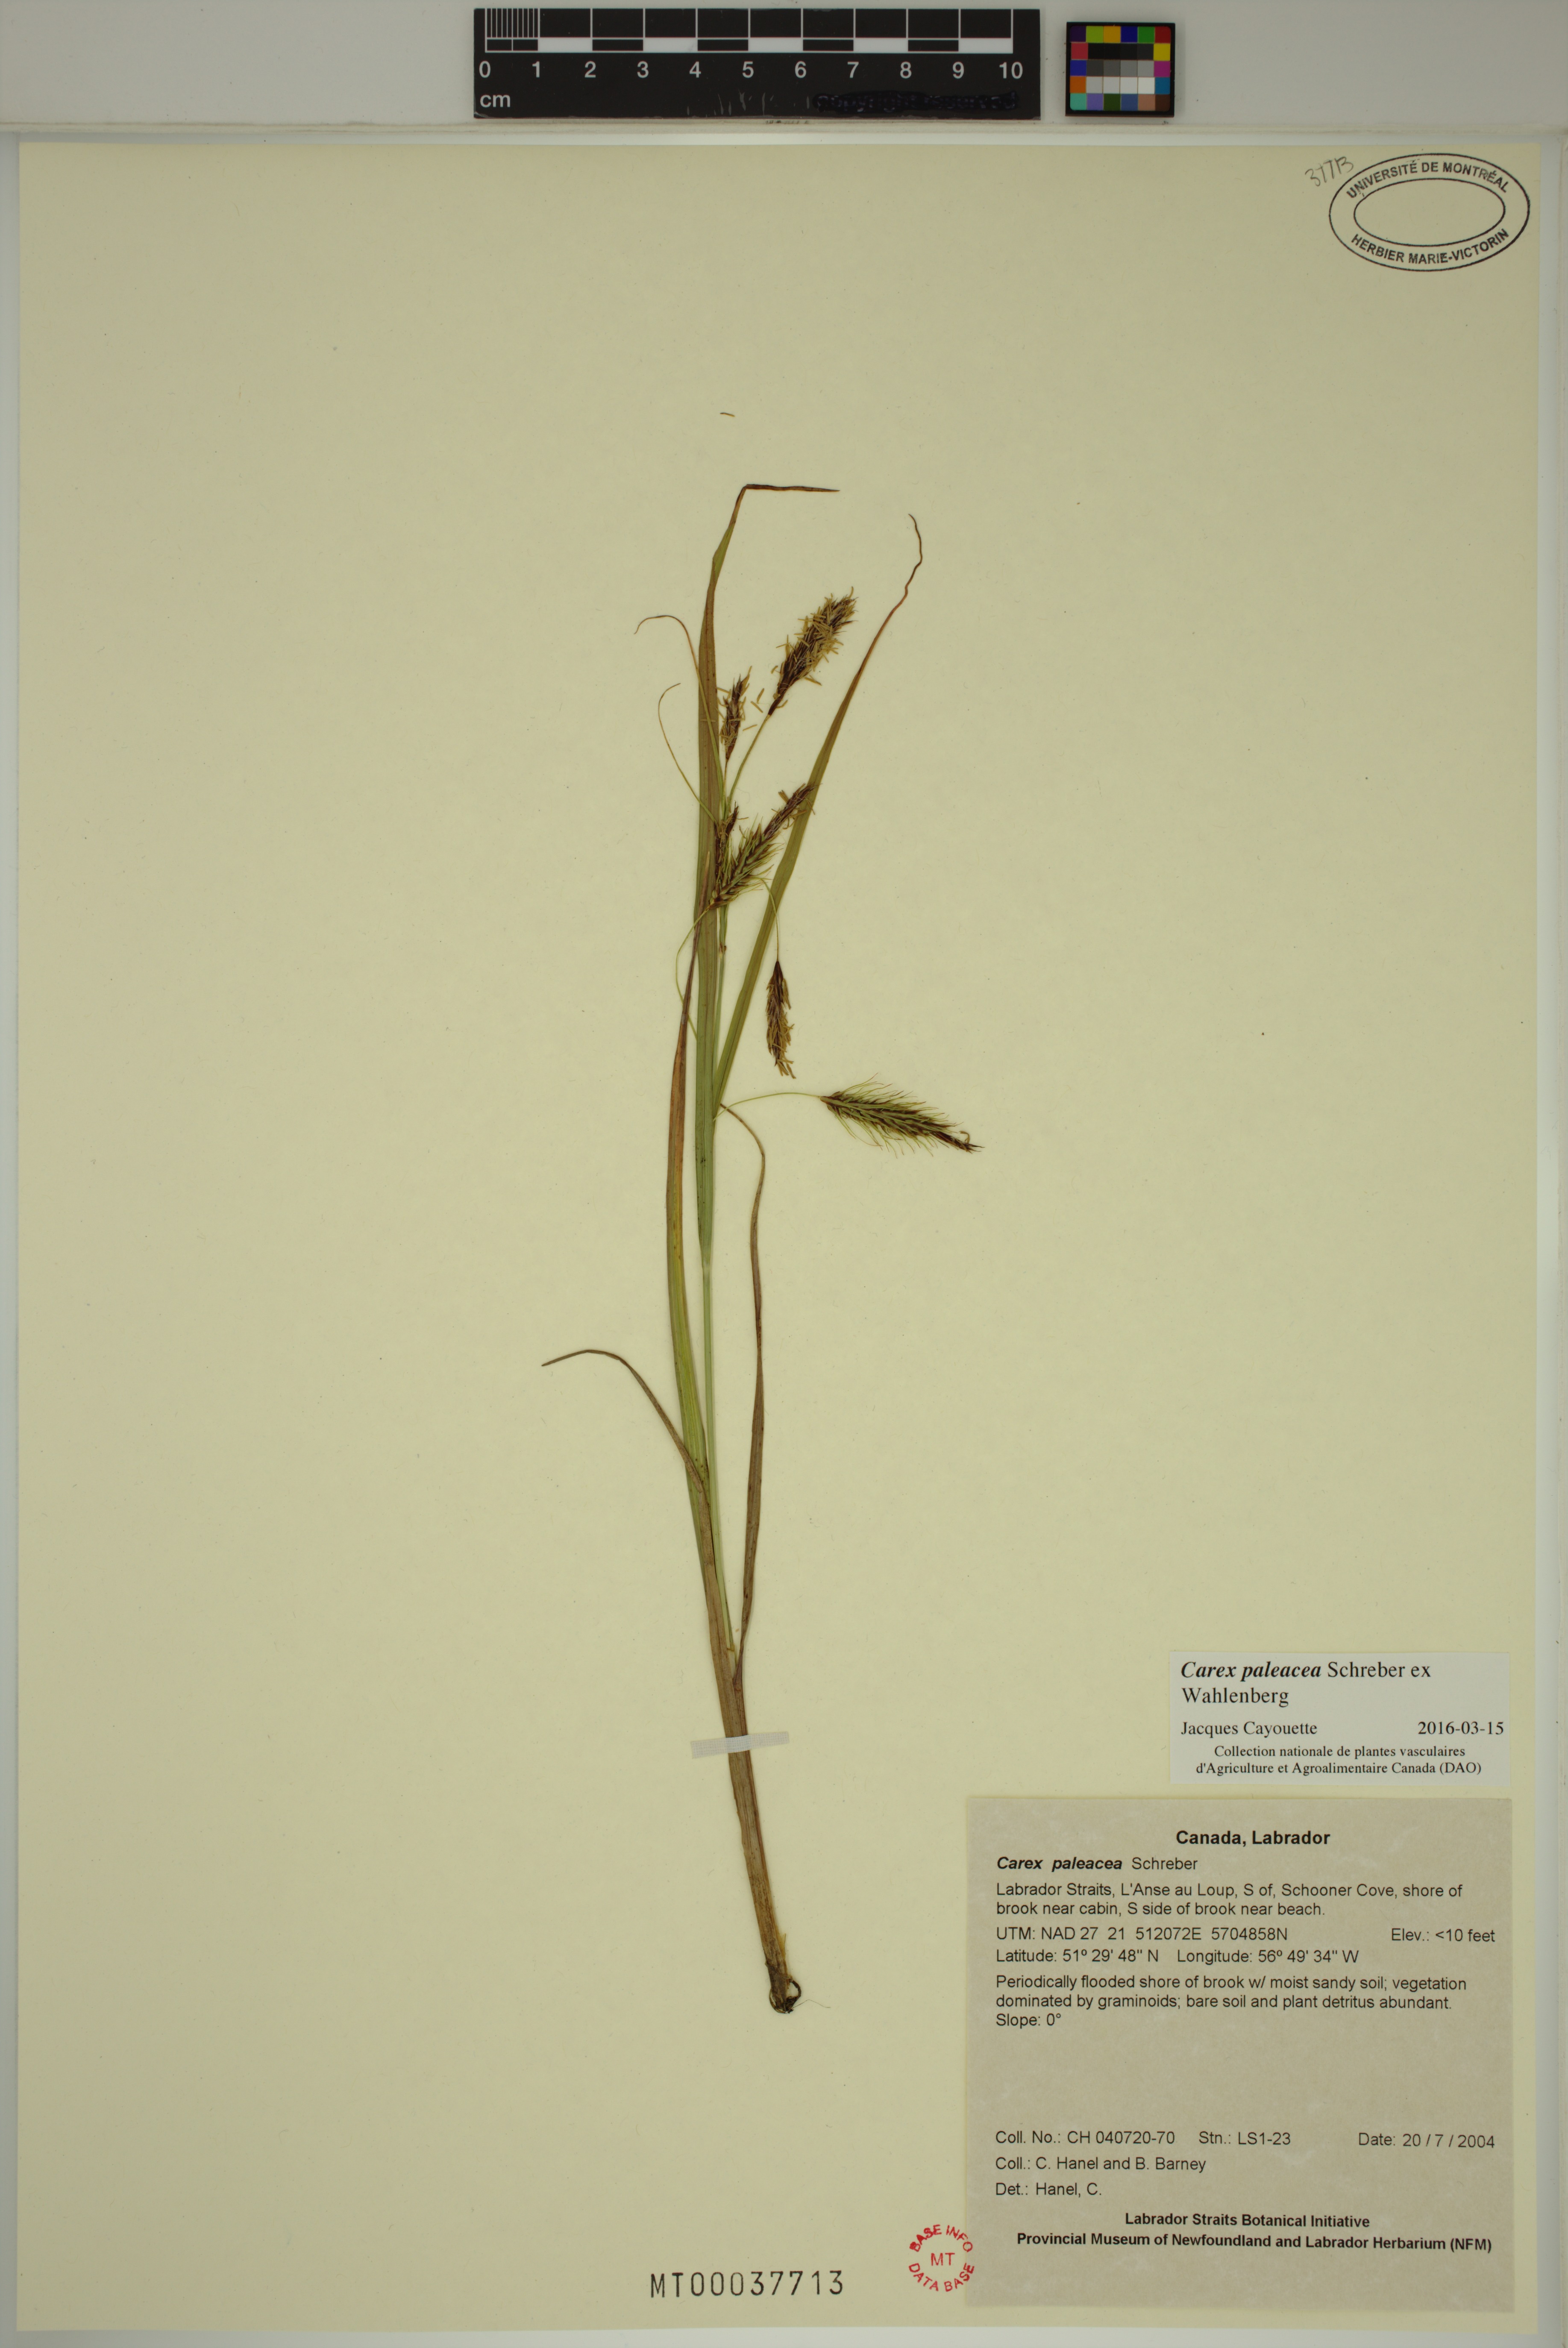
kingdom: Plantae
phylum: Tracheophyta
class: Liliopsida
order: Poales
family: Cyperaceae
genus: Carex
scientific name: Carex paleacea
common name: Chaffy sedge
